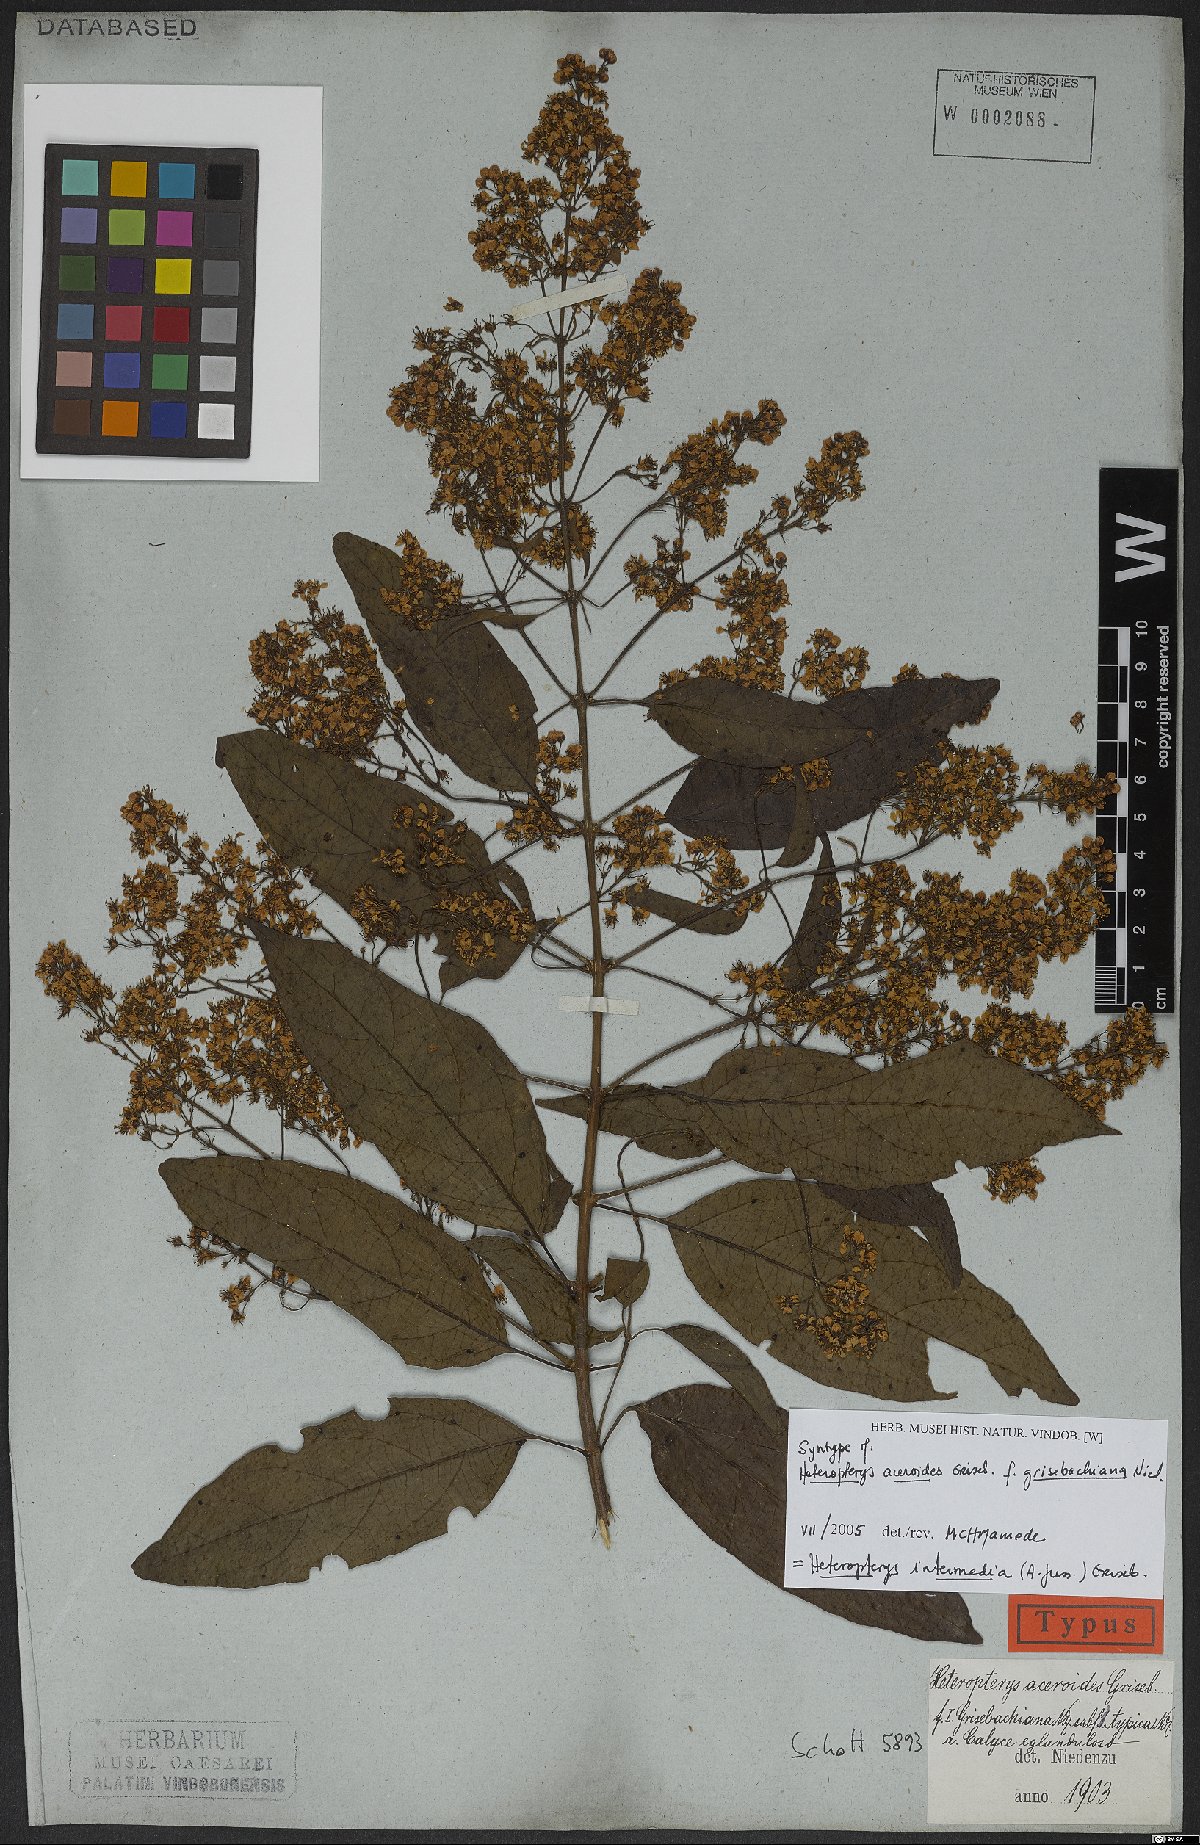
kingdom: Plantae
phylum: Tracheophyta
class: Magnoliopsida
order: Malpighiales
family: Malpighiaceae
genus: Heteropterys
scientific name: Heteropterys intermedia
